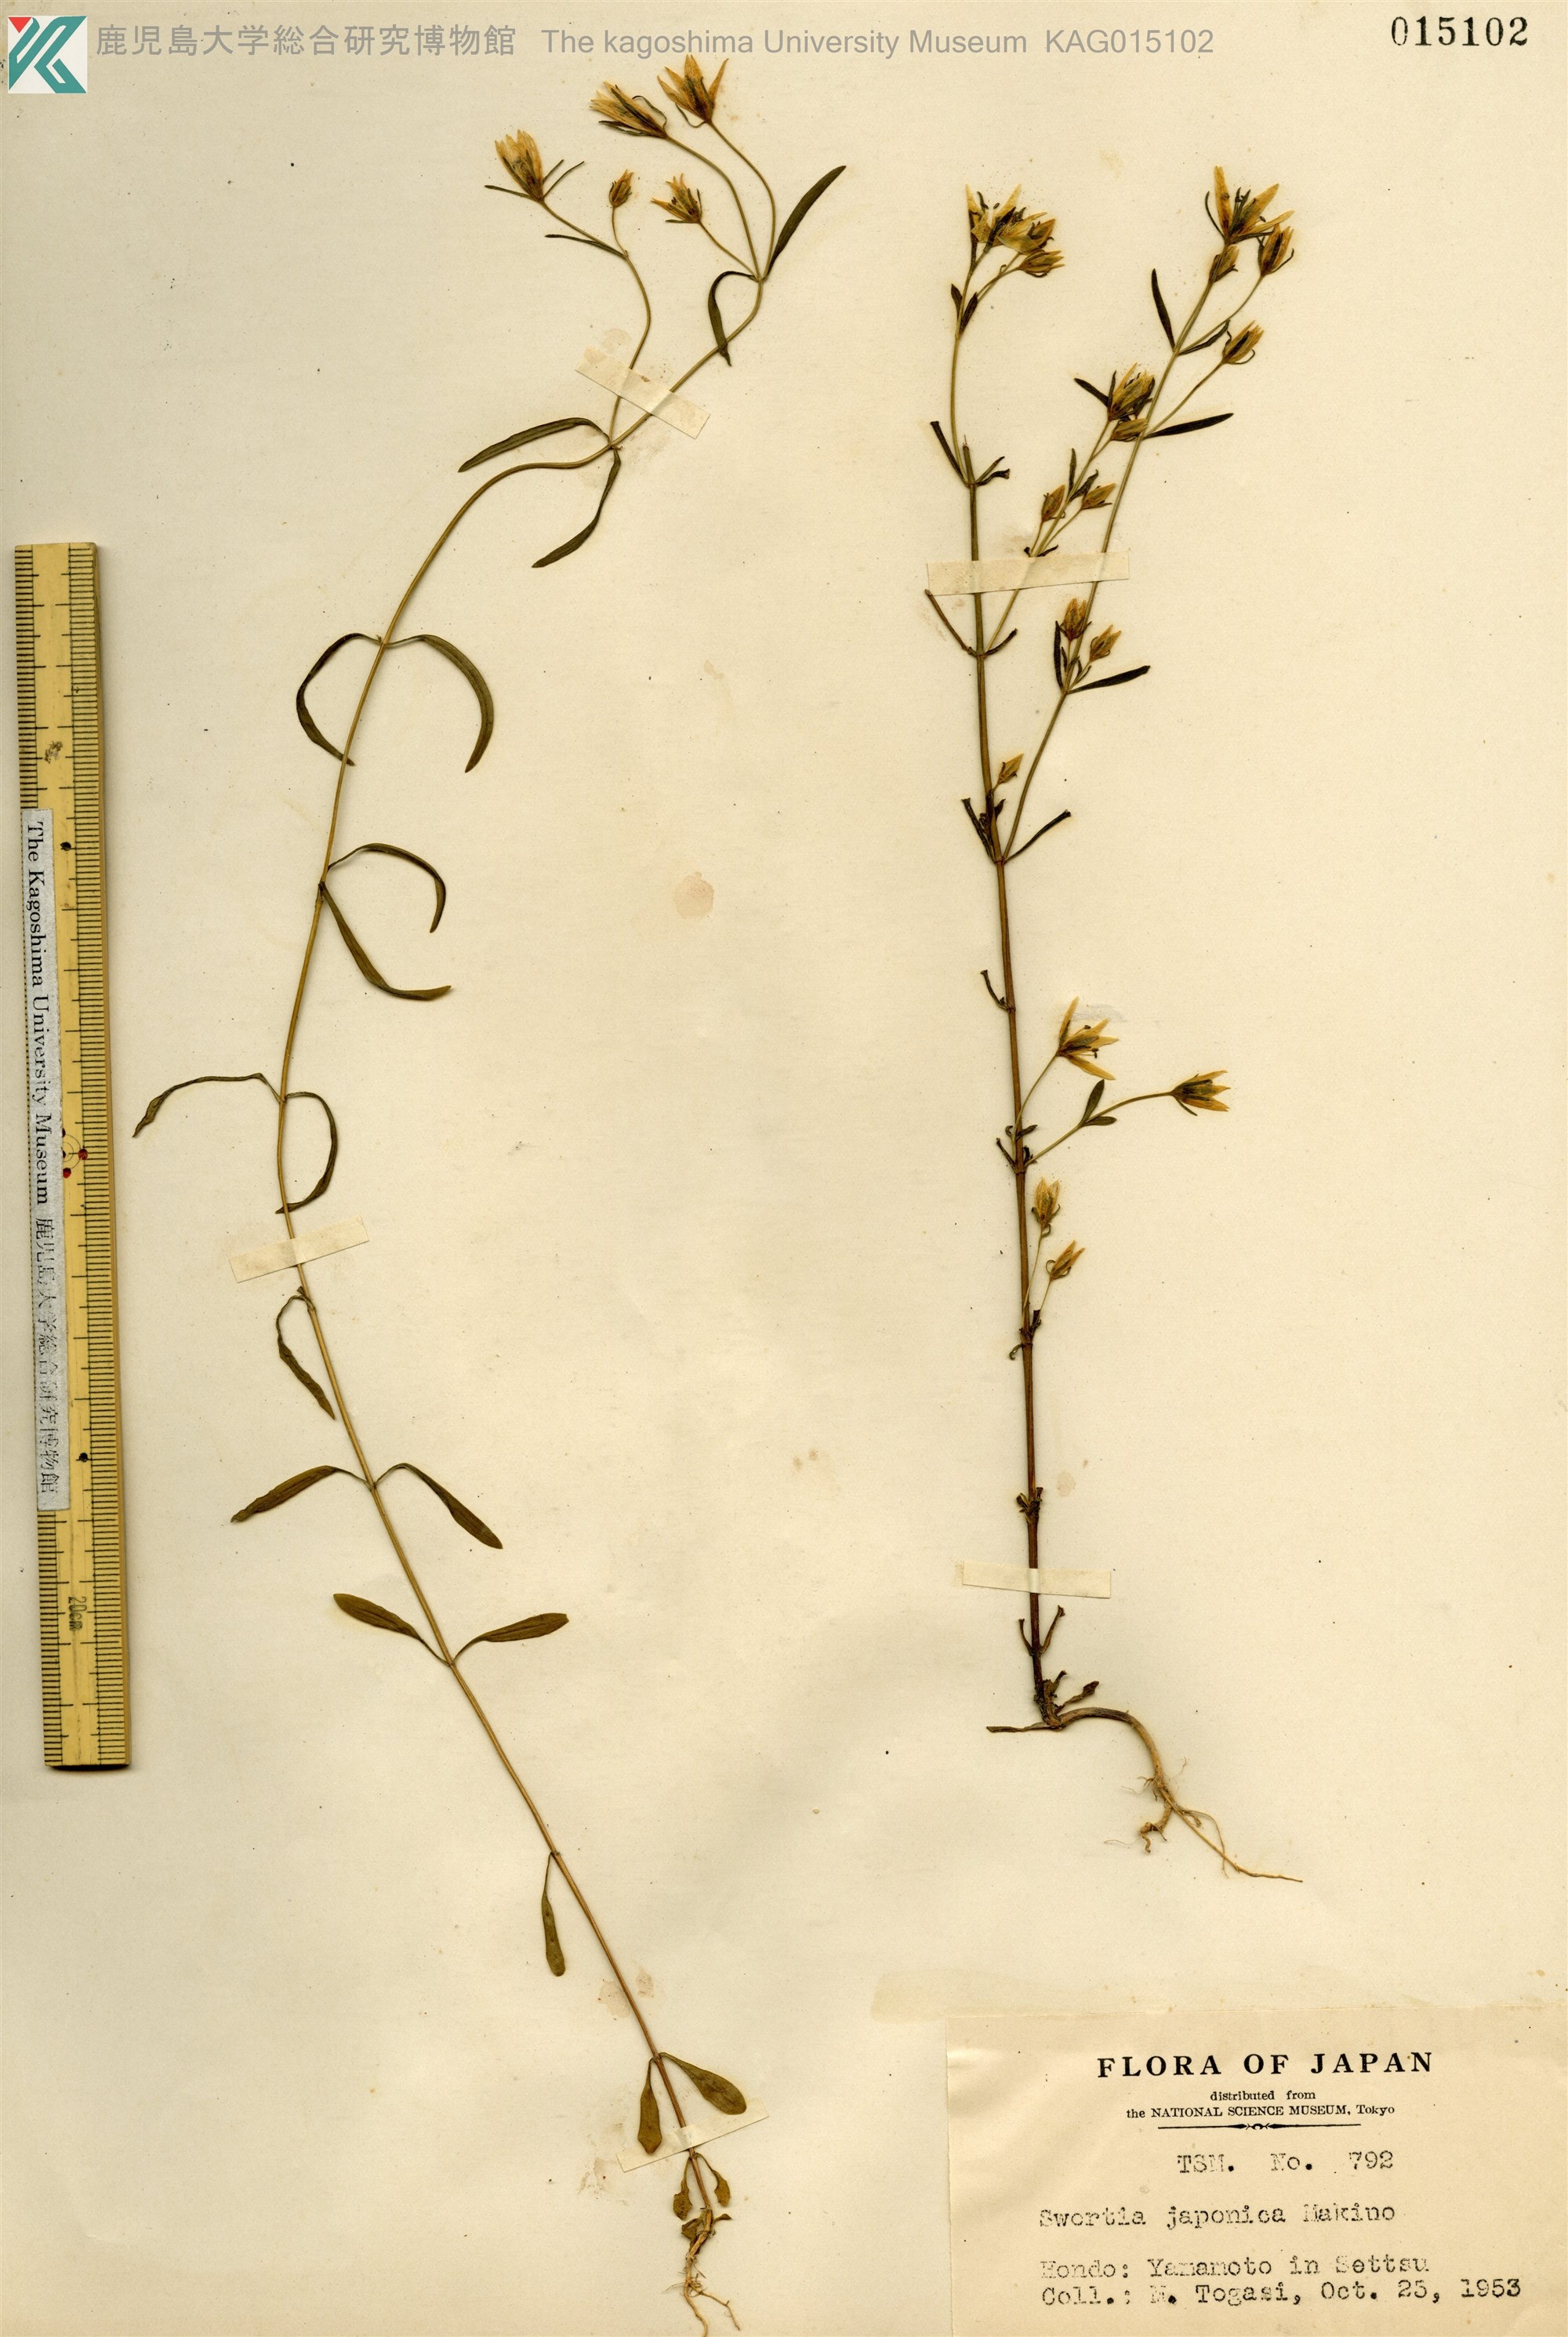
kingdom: Plantae
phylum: Tracheophyta
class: Magnoliopsida
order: Gentianales
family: Gentianaceae
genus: Swertia
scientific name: Swertia japonica
